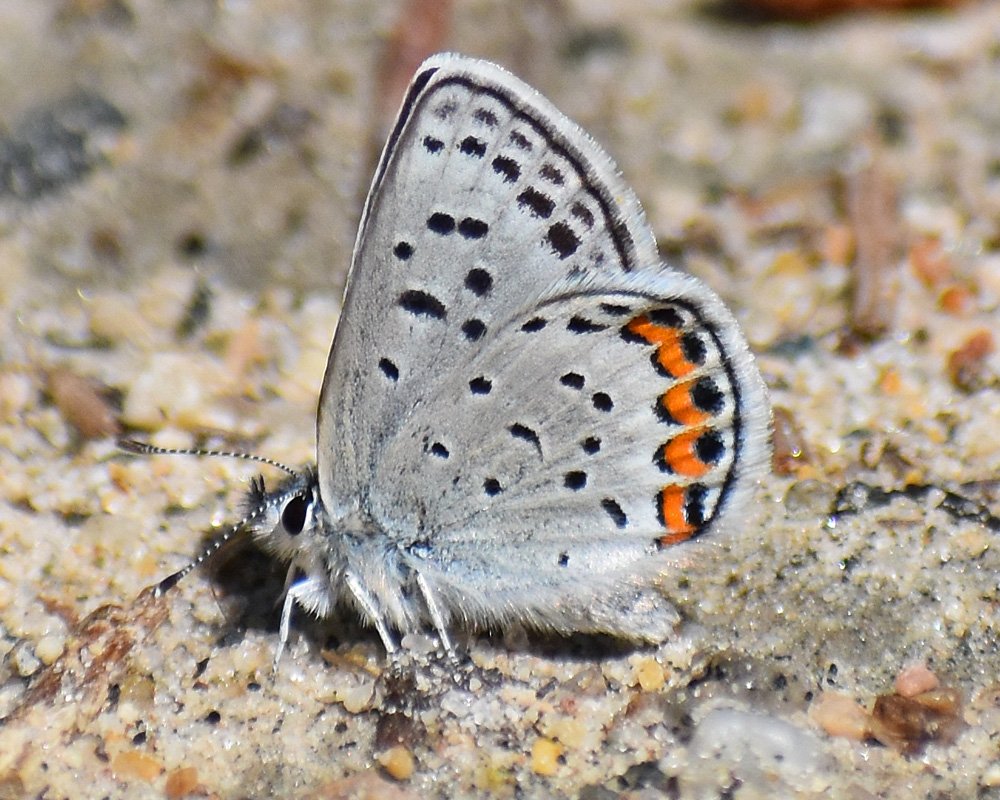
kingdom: Animalia
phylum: Arthropoda
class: Insecta
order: Lepidoptera
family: Lycaenidae
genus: Plebejus
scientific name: Plebejus lupini
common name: Lupine Blue
